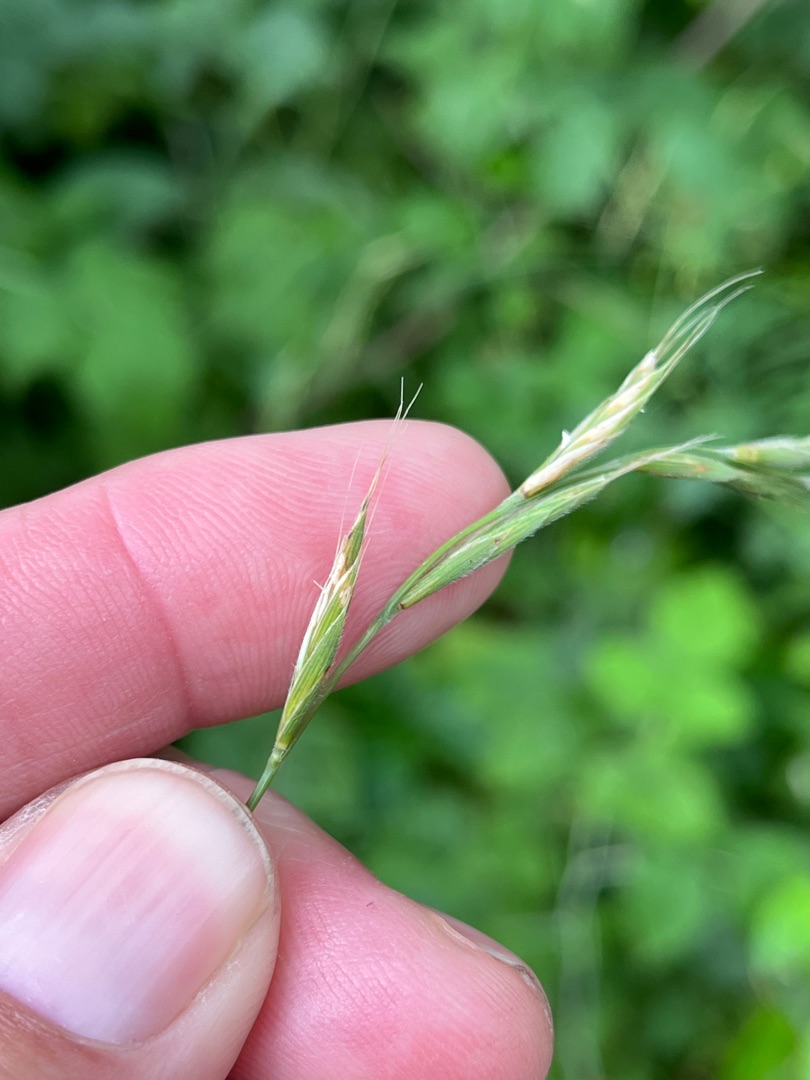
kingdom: Plantae
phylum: Tracheophyta
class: Liliopsida
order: Poales
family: Poaceae
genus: Brachypodium
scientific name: Brachypodium sylvaticum
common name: Skov-stilkaks
